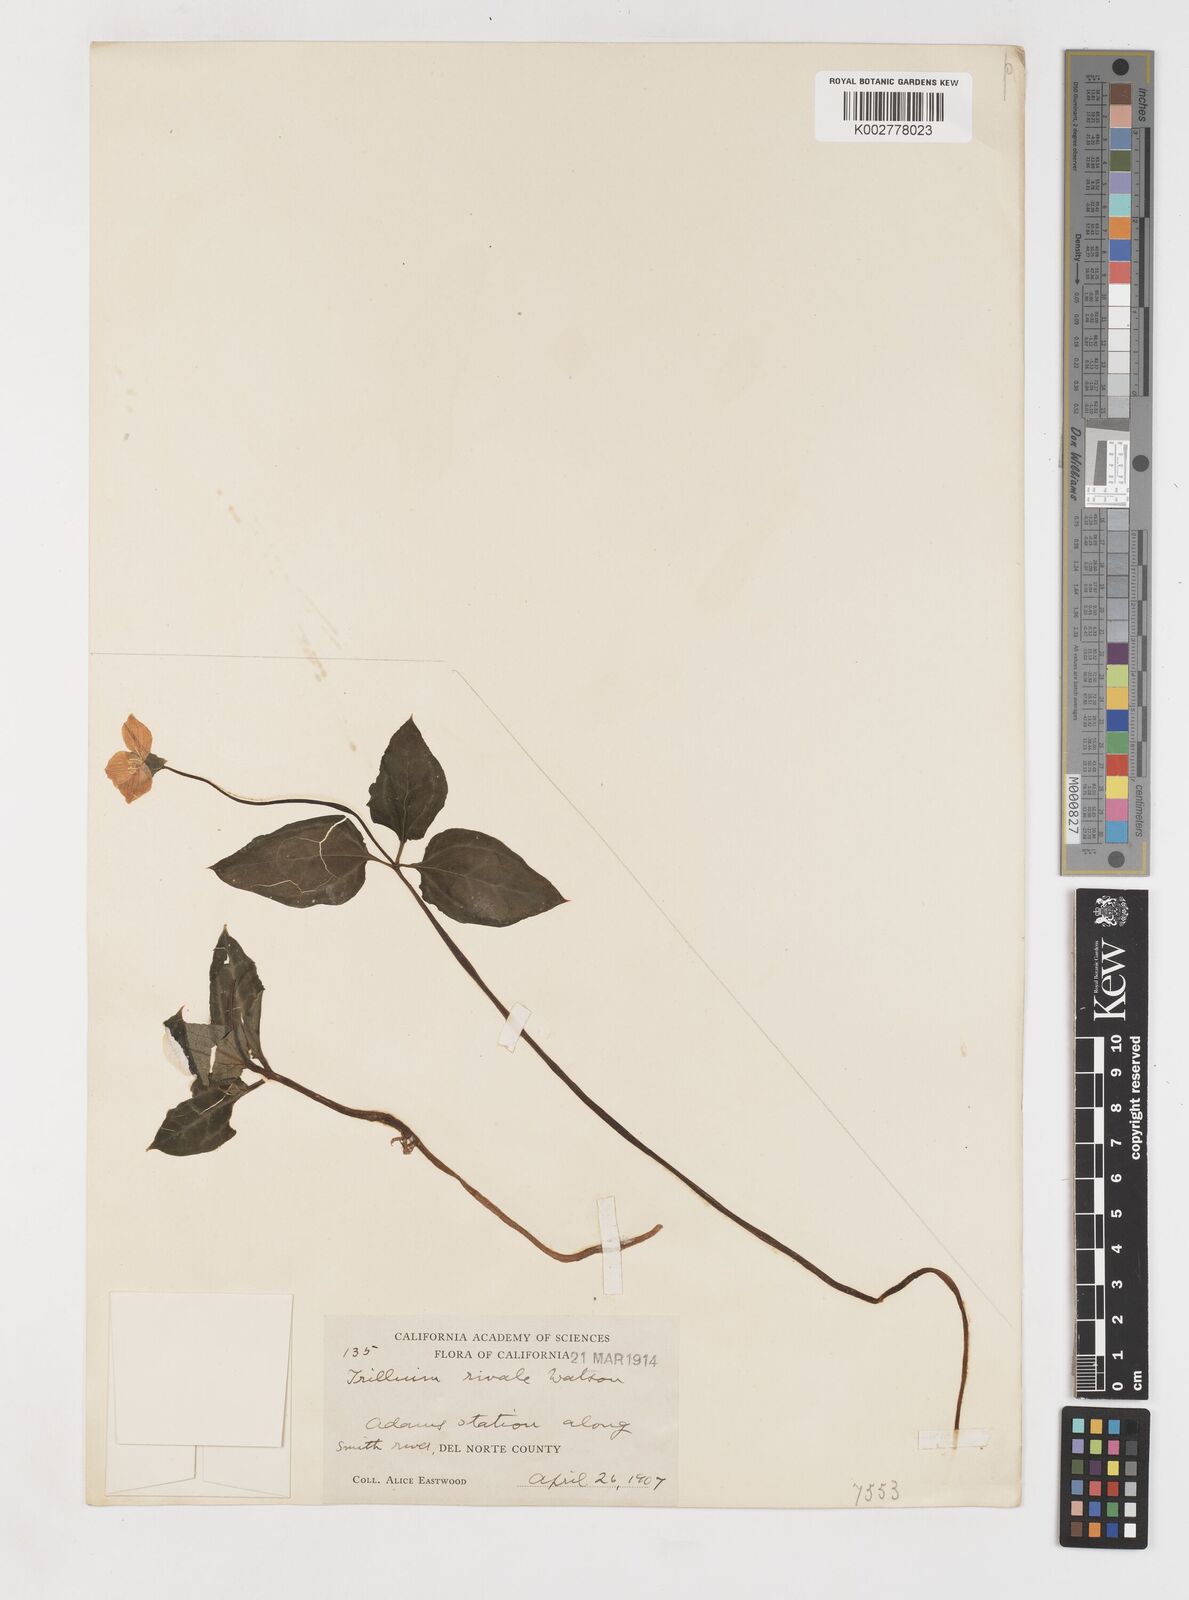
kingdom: Plantae
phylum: Tracheophyta
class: Liliopsida
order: Liliales
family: Melanthiaceae
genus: Pseudotrillium
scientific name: Pseudotrillium rivale
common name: Brook wakerobin
